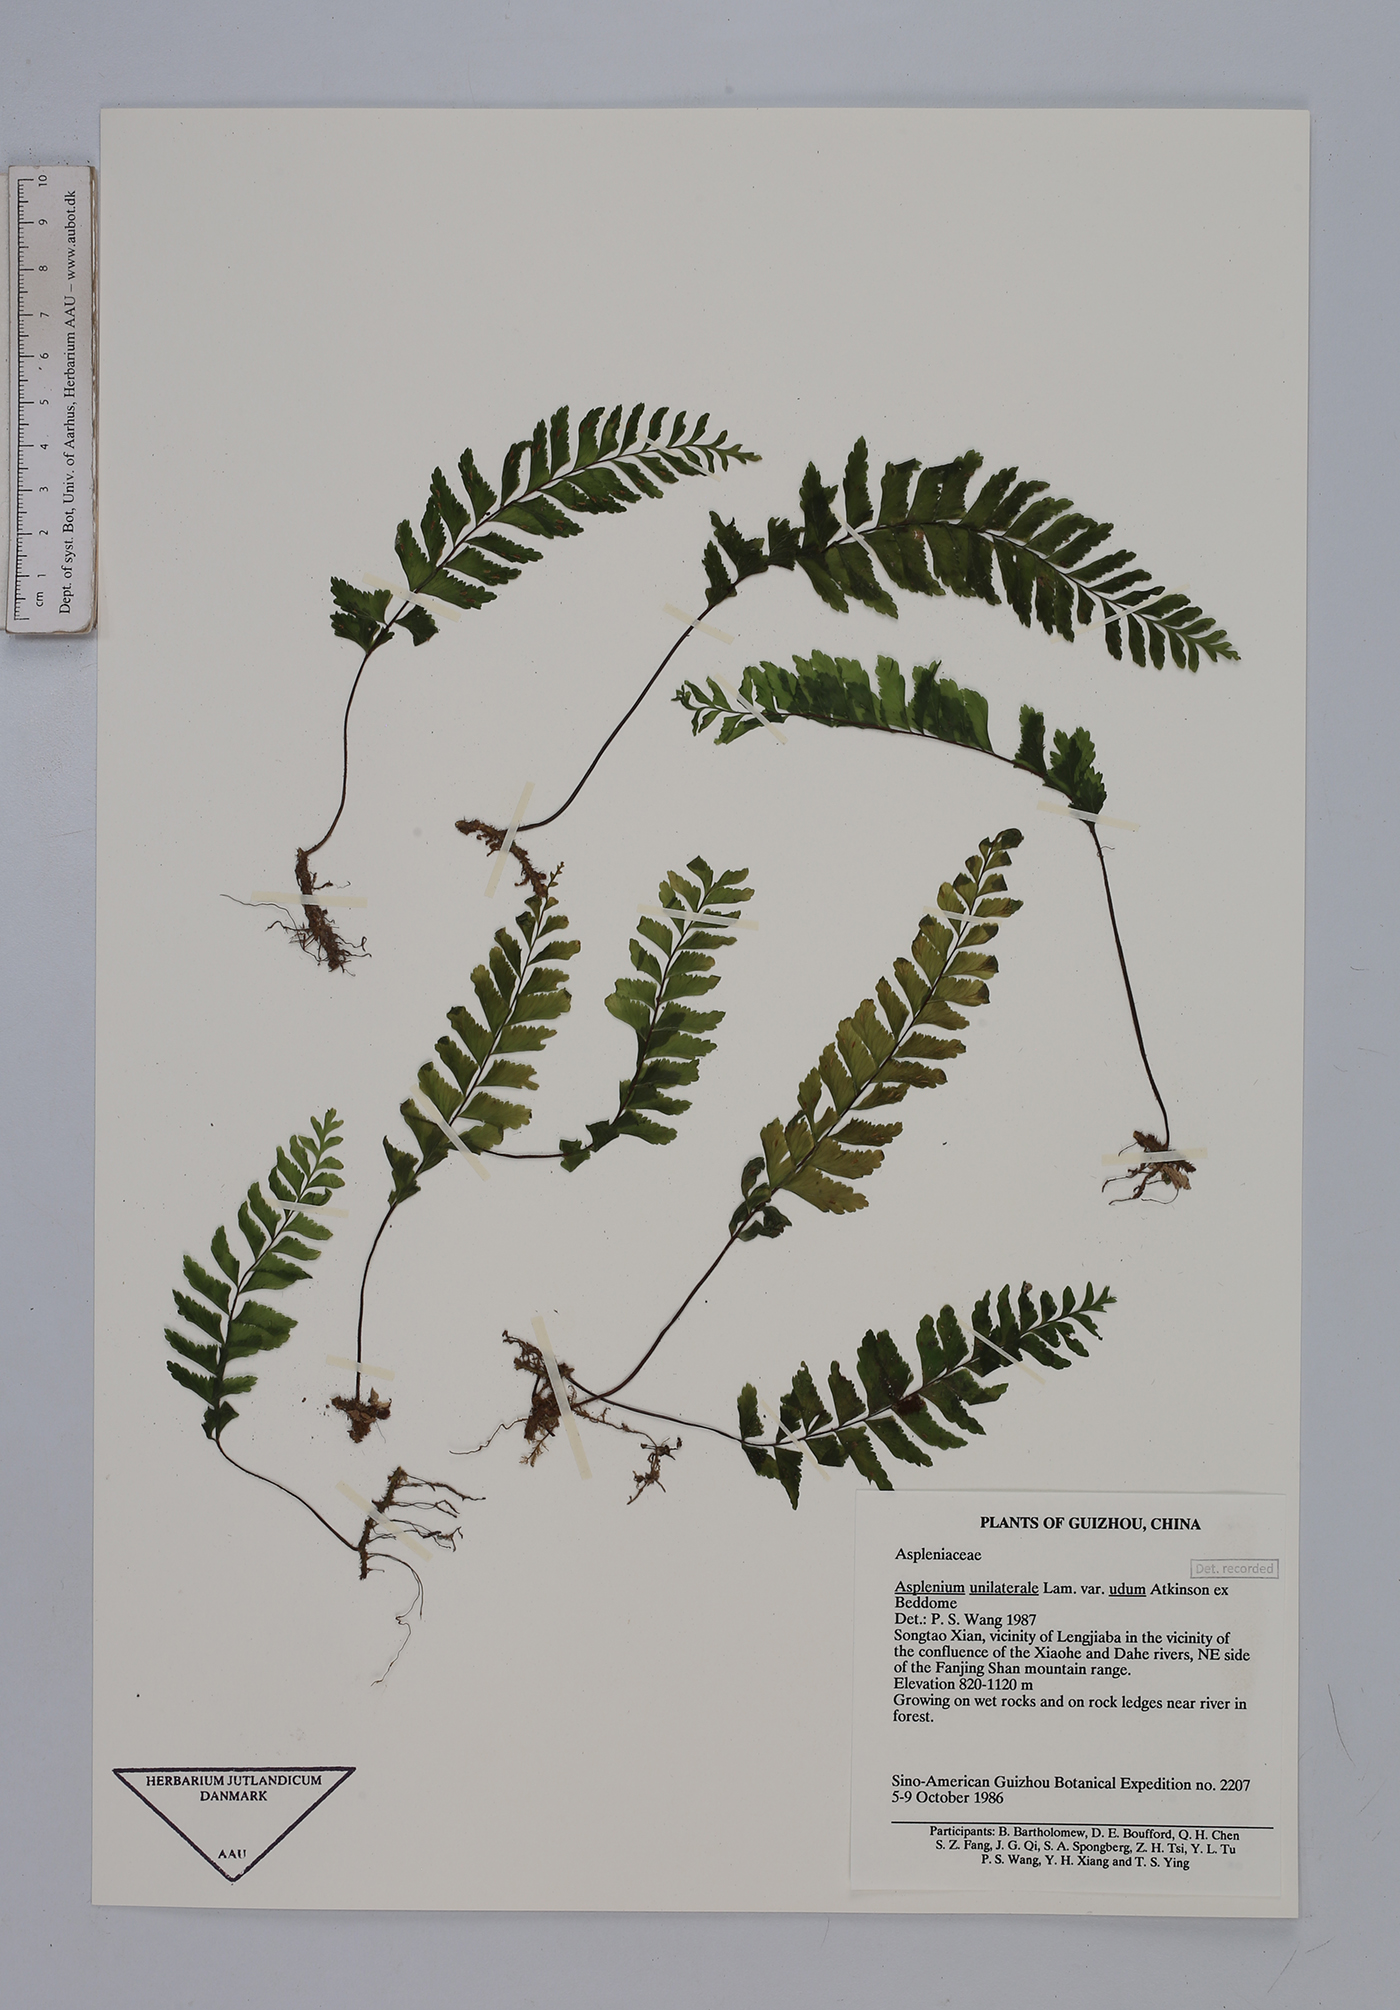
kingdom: Plantae
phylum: Tracheophyta
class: Polypodiopsida
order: Polypodiales
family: Aspleniaceae
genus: Hymenasplenium
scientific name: Hymenasplenium unilaterale
